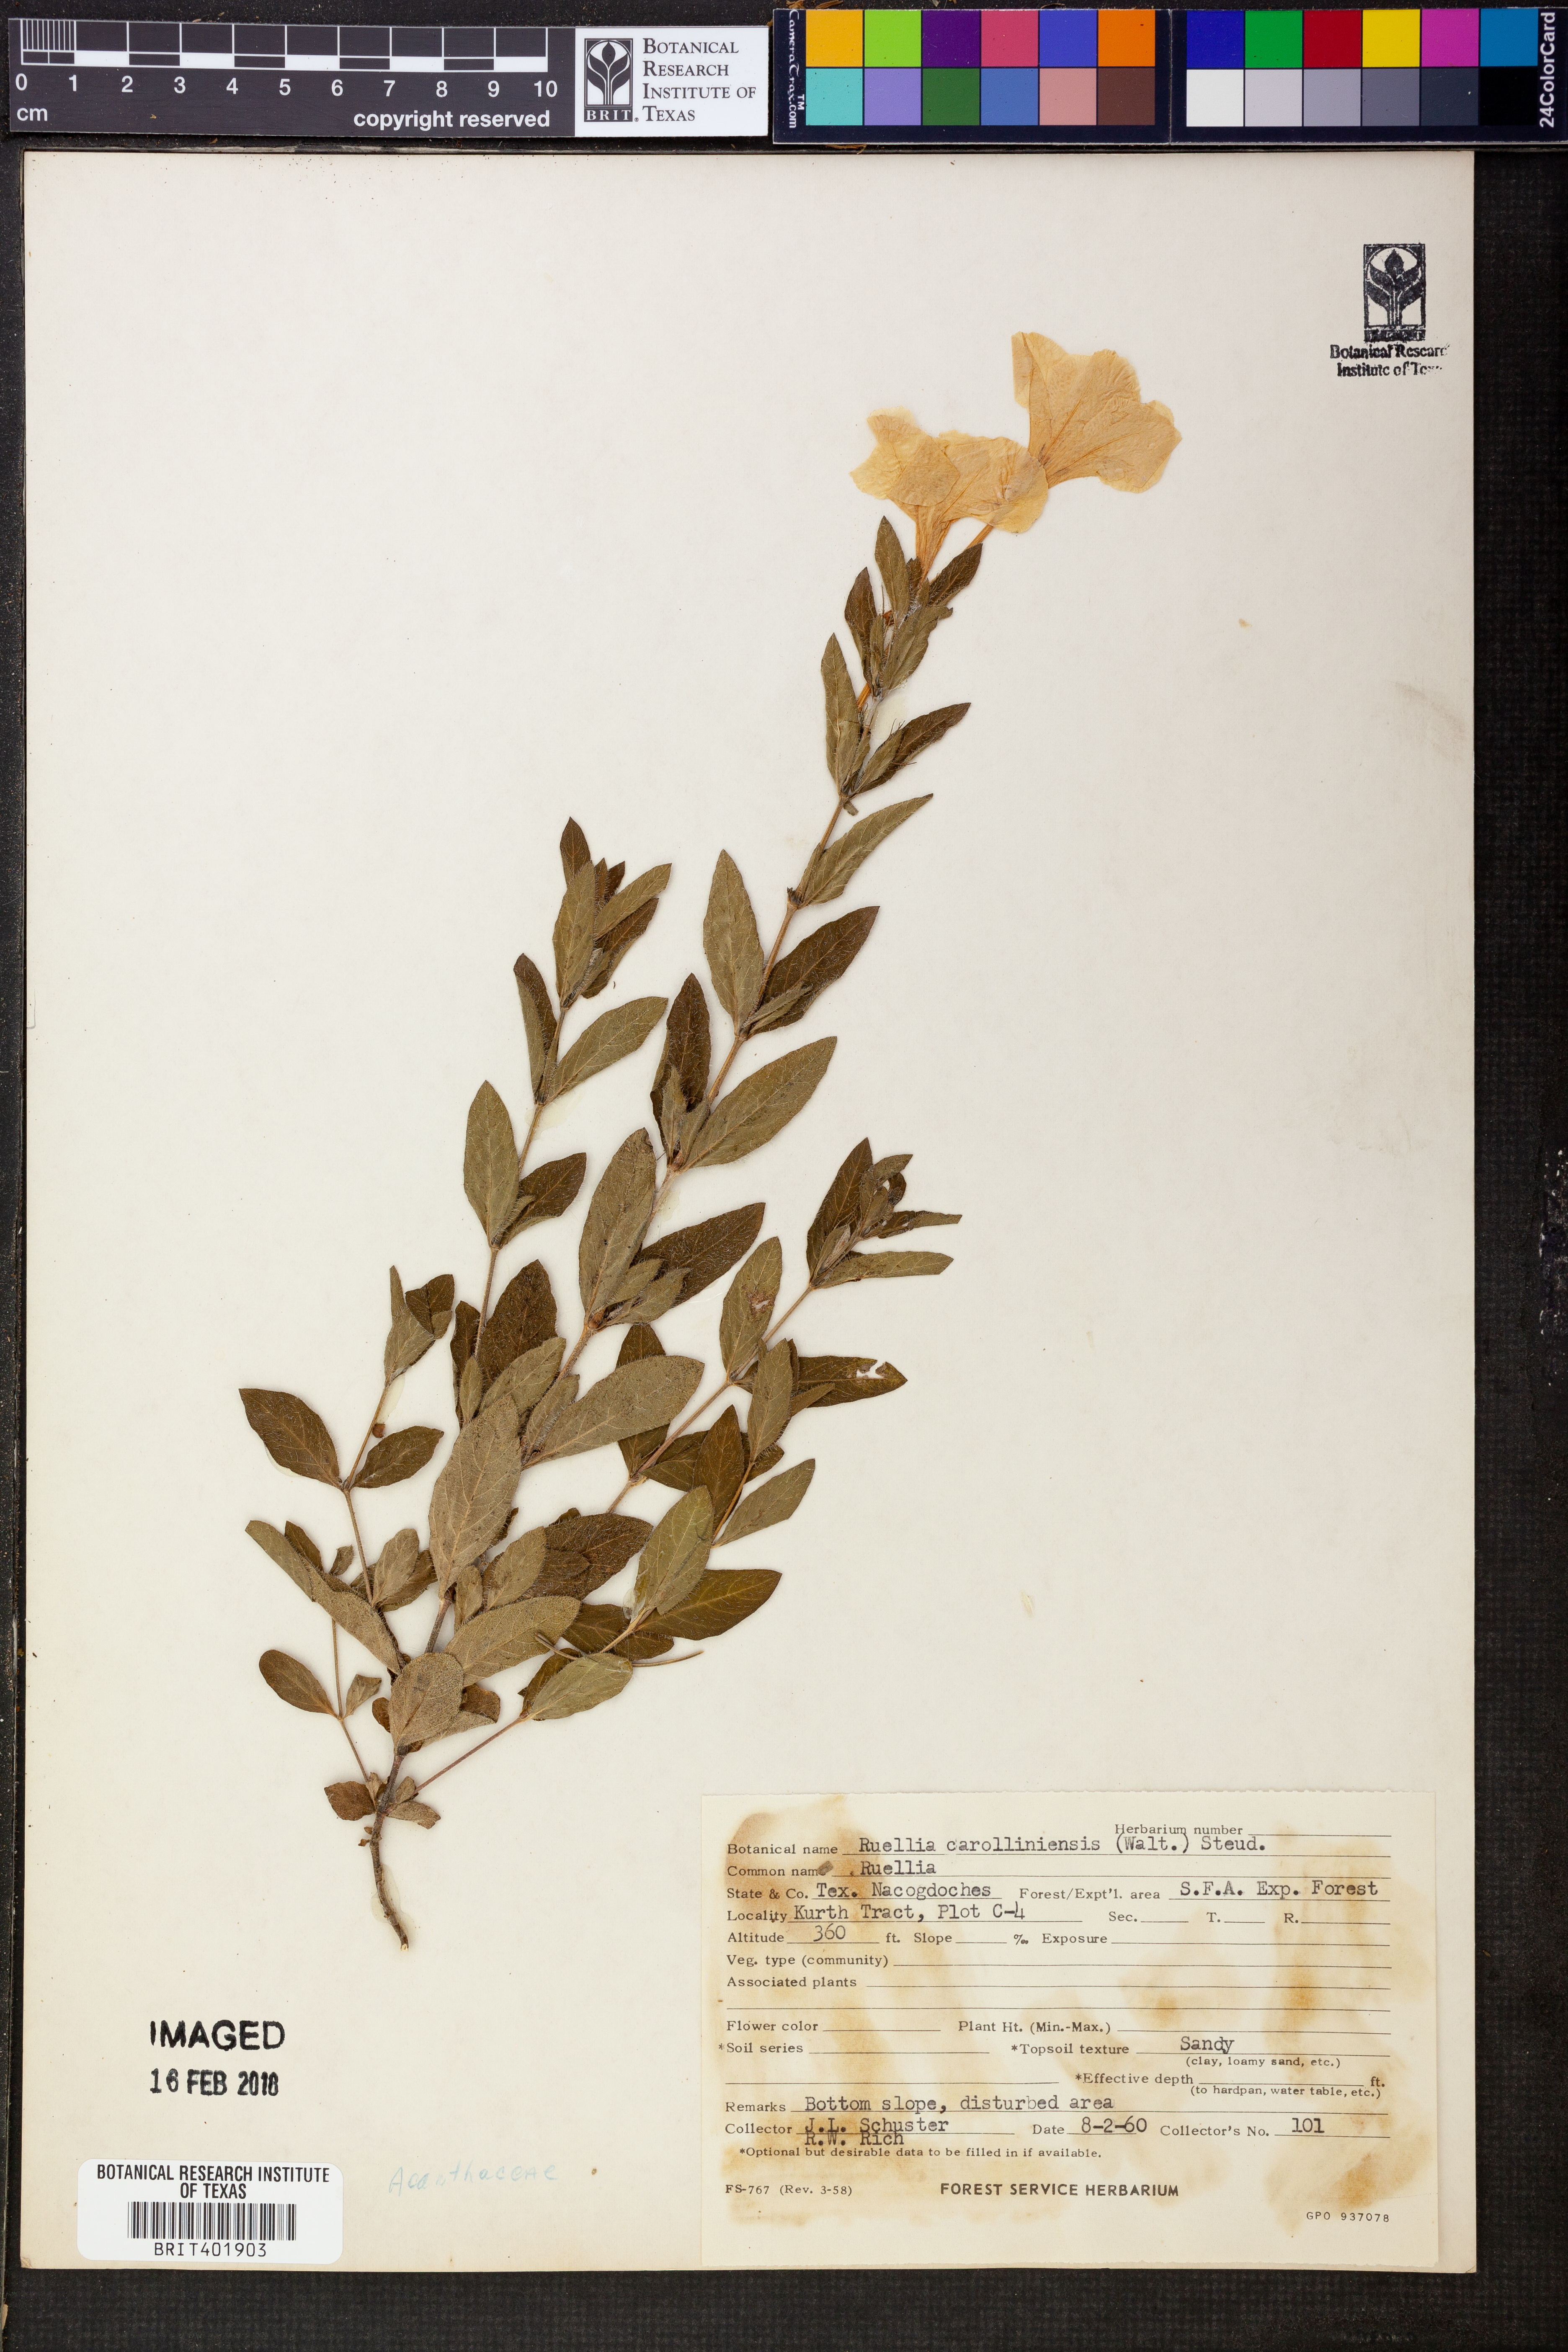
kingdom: Plantae
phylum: Tracheophyta
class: Magnoliopsida
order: Lamiales
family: Acanthaceae
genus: Ruellia
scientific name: Ruellia caroliniensis
